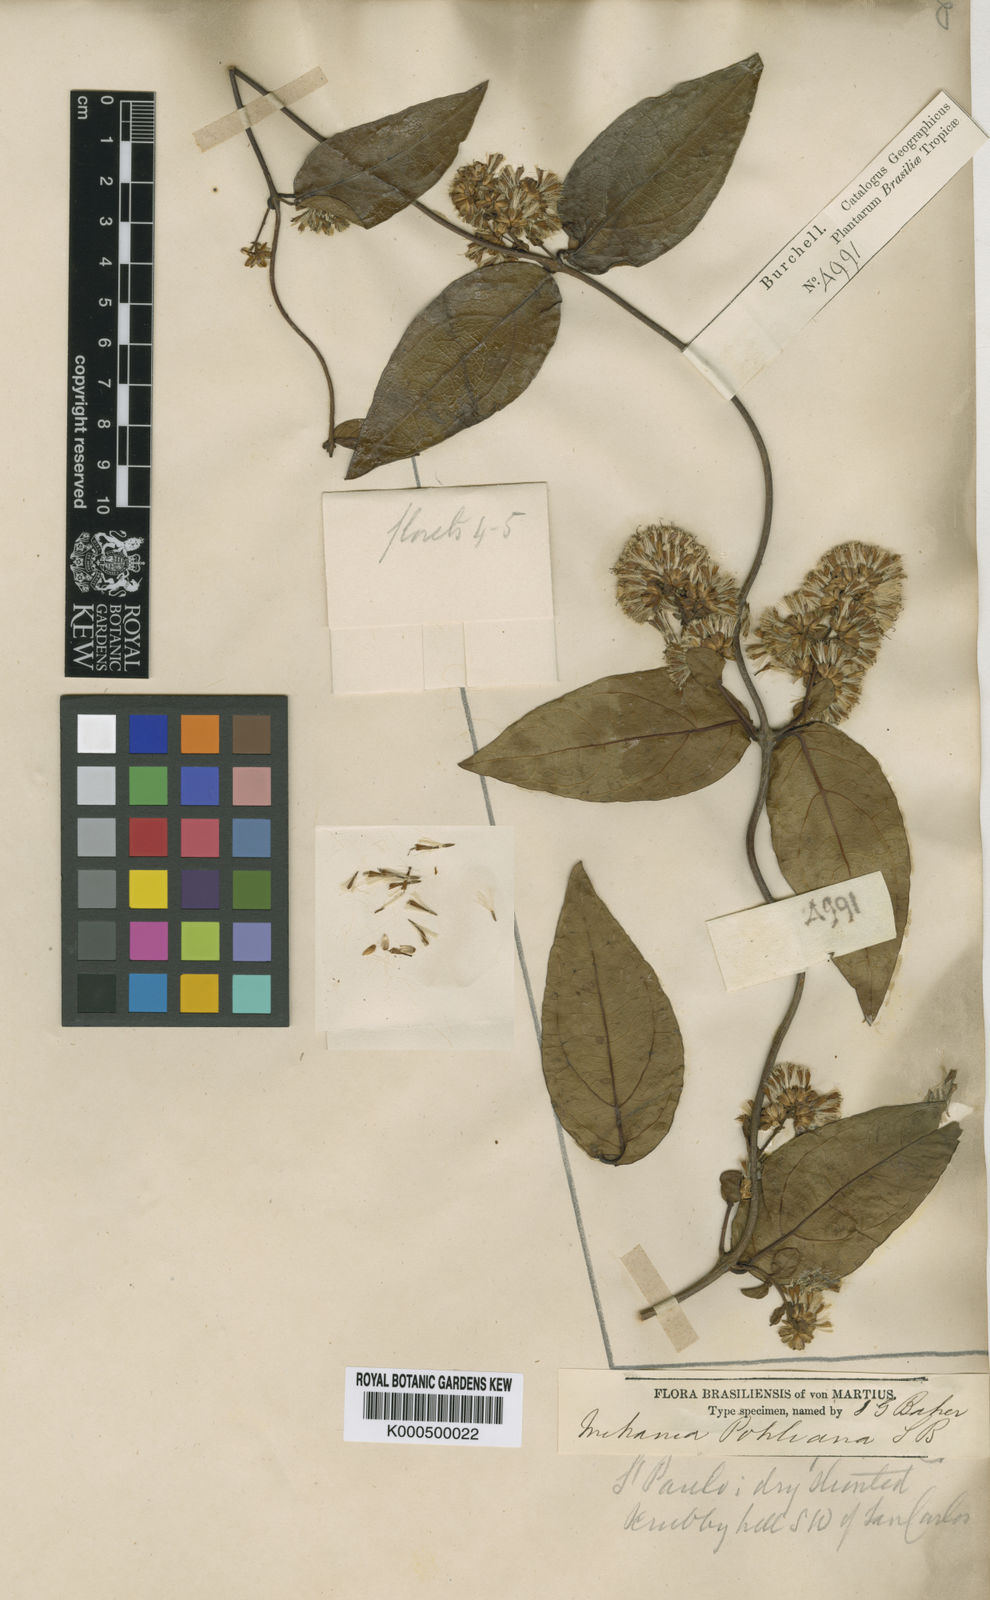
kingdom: Plantae
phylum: Tracheophyta
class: Magnoliopsida
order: Asterales
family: Asteraceae
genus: Mikania
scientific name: Mikania pohliana
